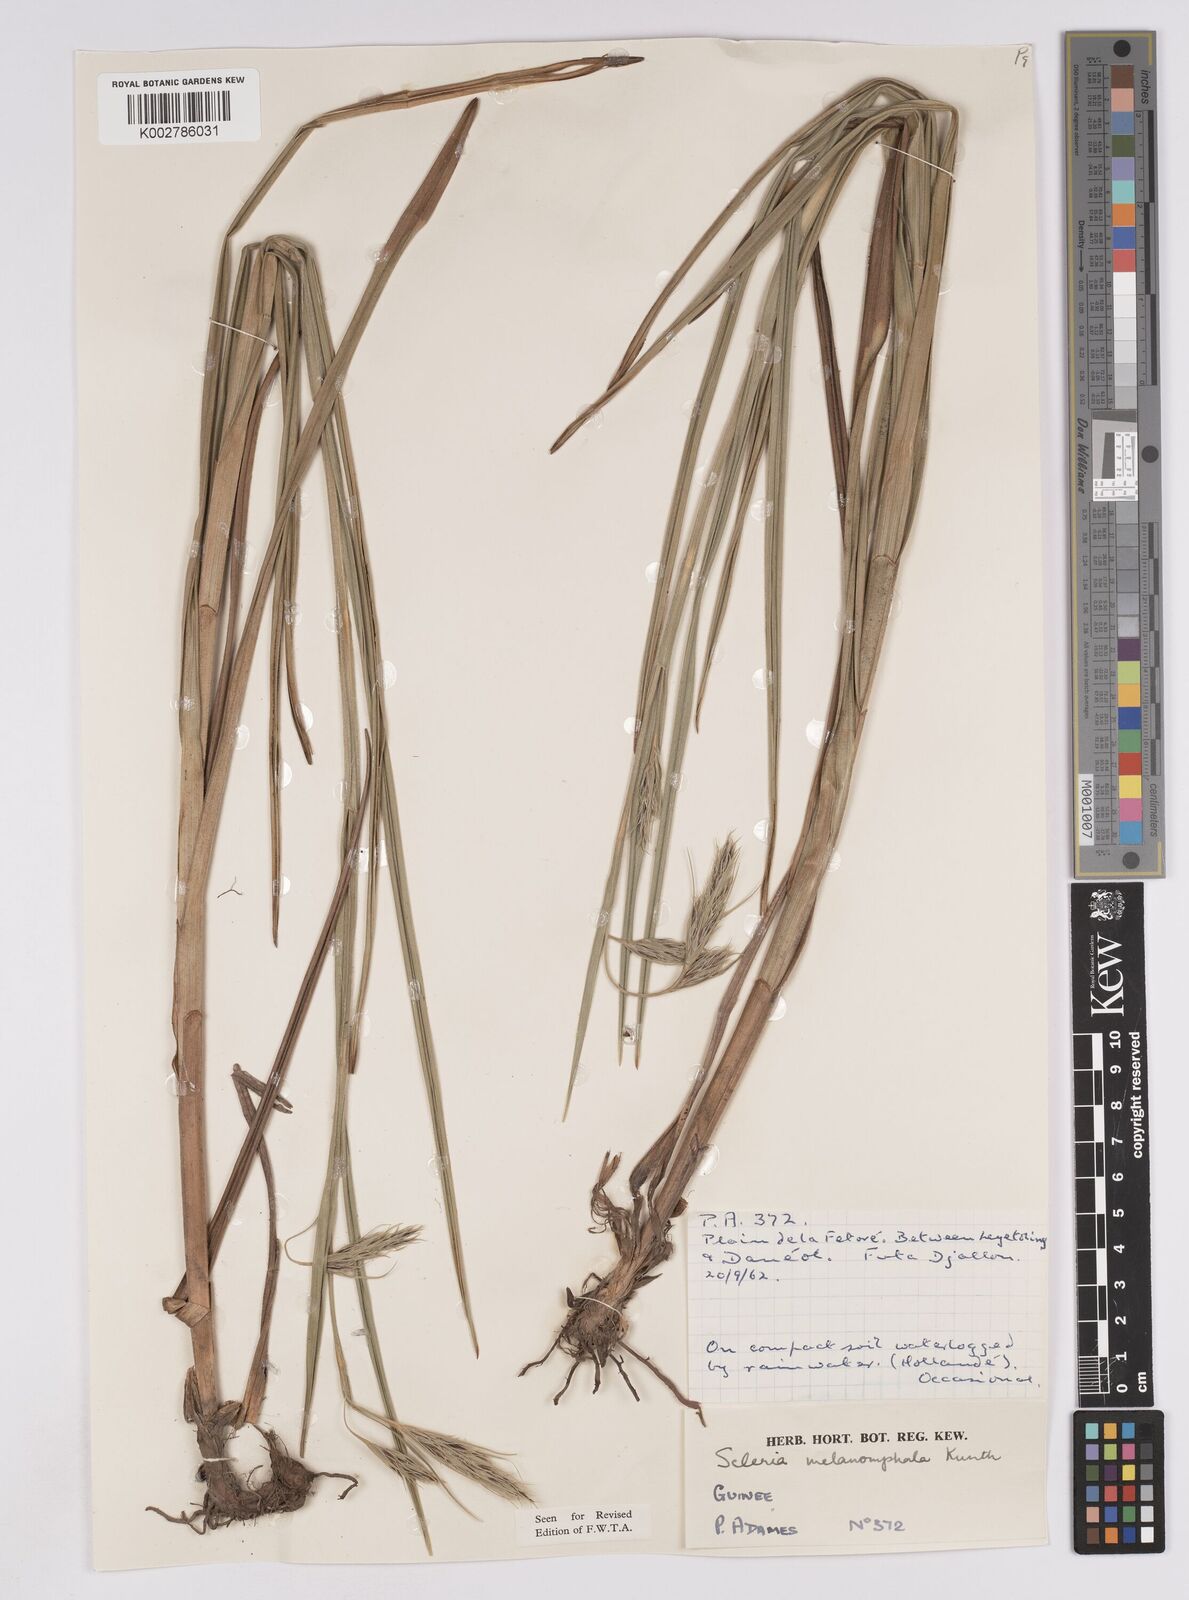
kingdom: Plantae
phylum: Tracheophyta
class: Liliopsida
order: Poales
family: Cyperaceae
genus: Scleria
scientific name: Scleria melanomphala
